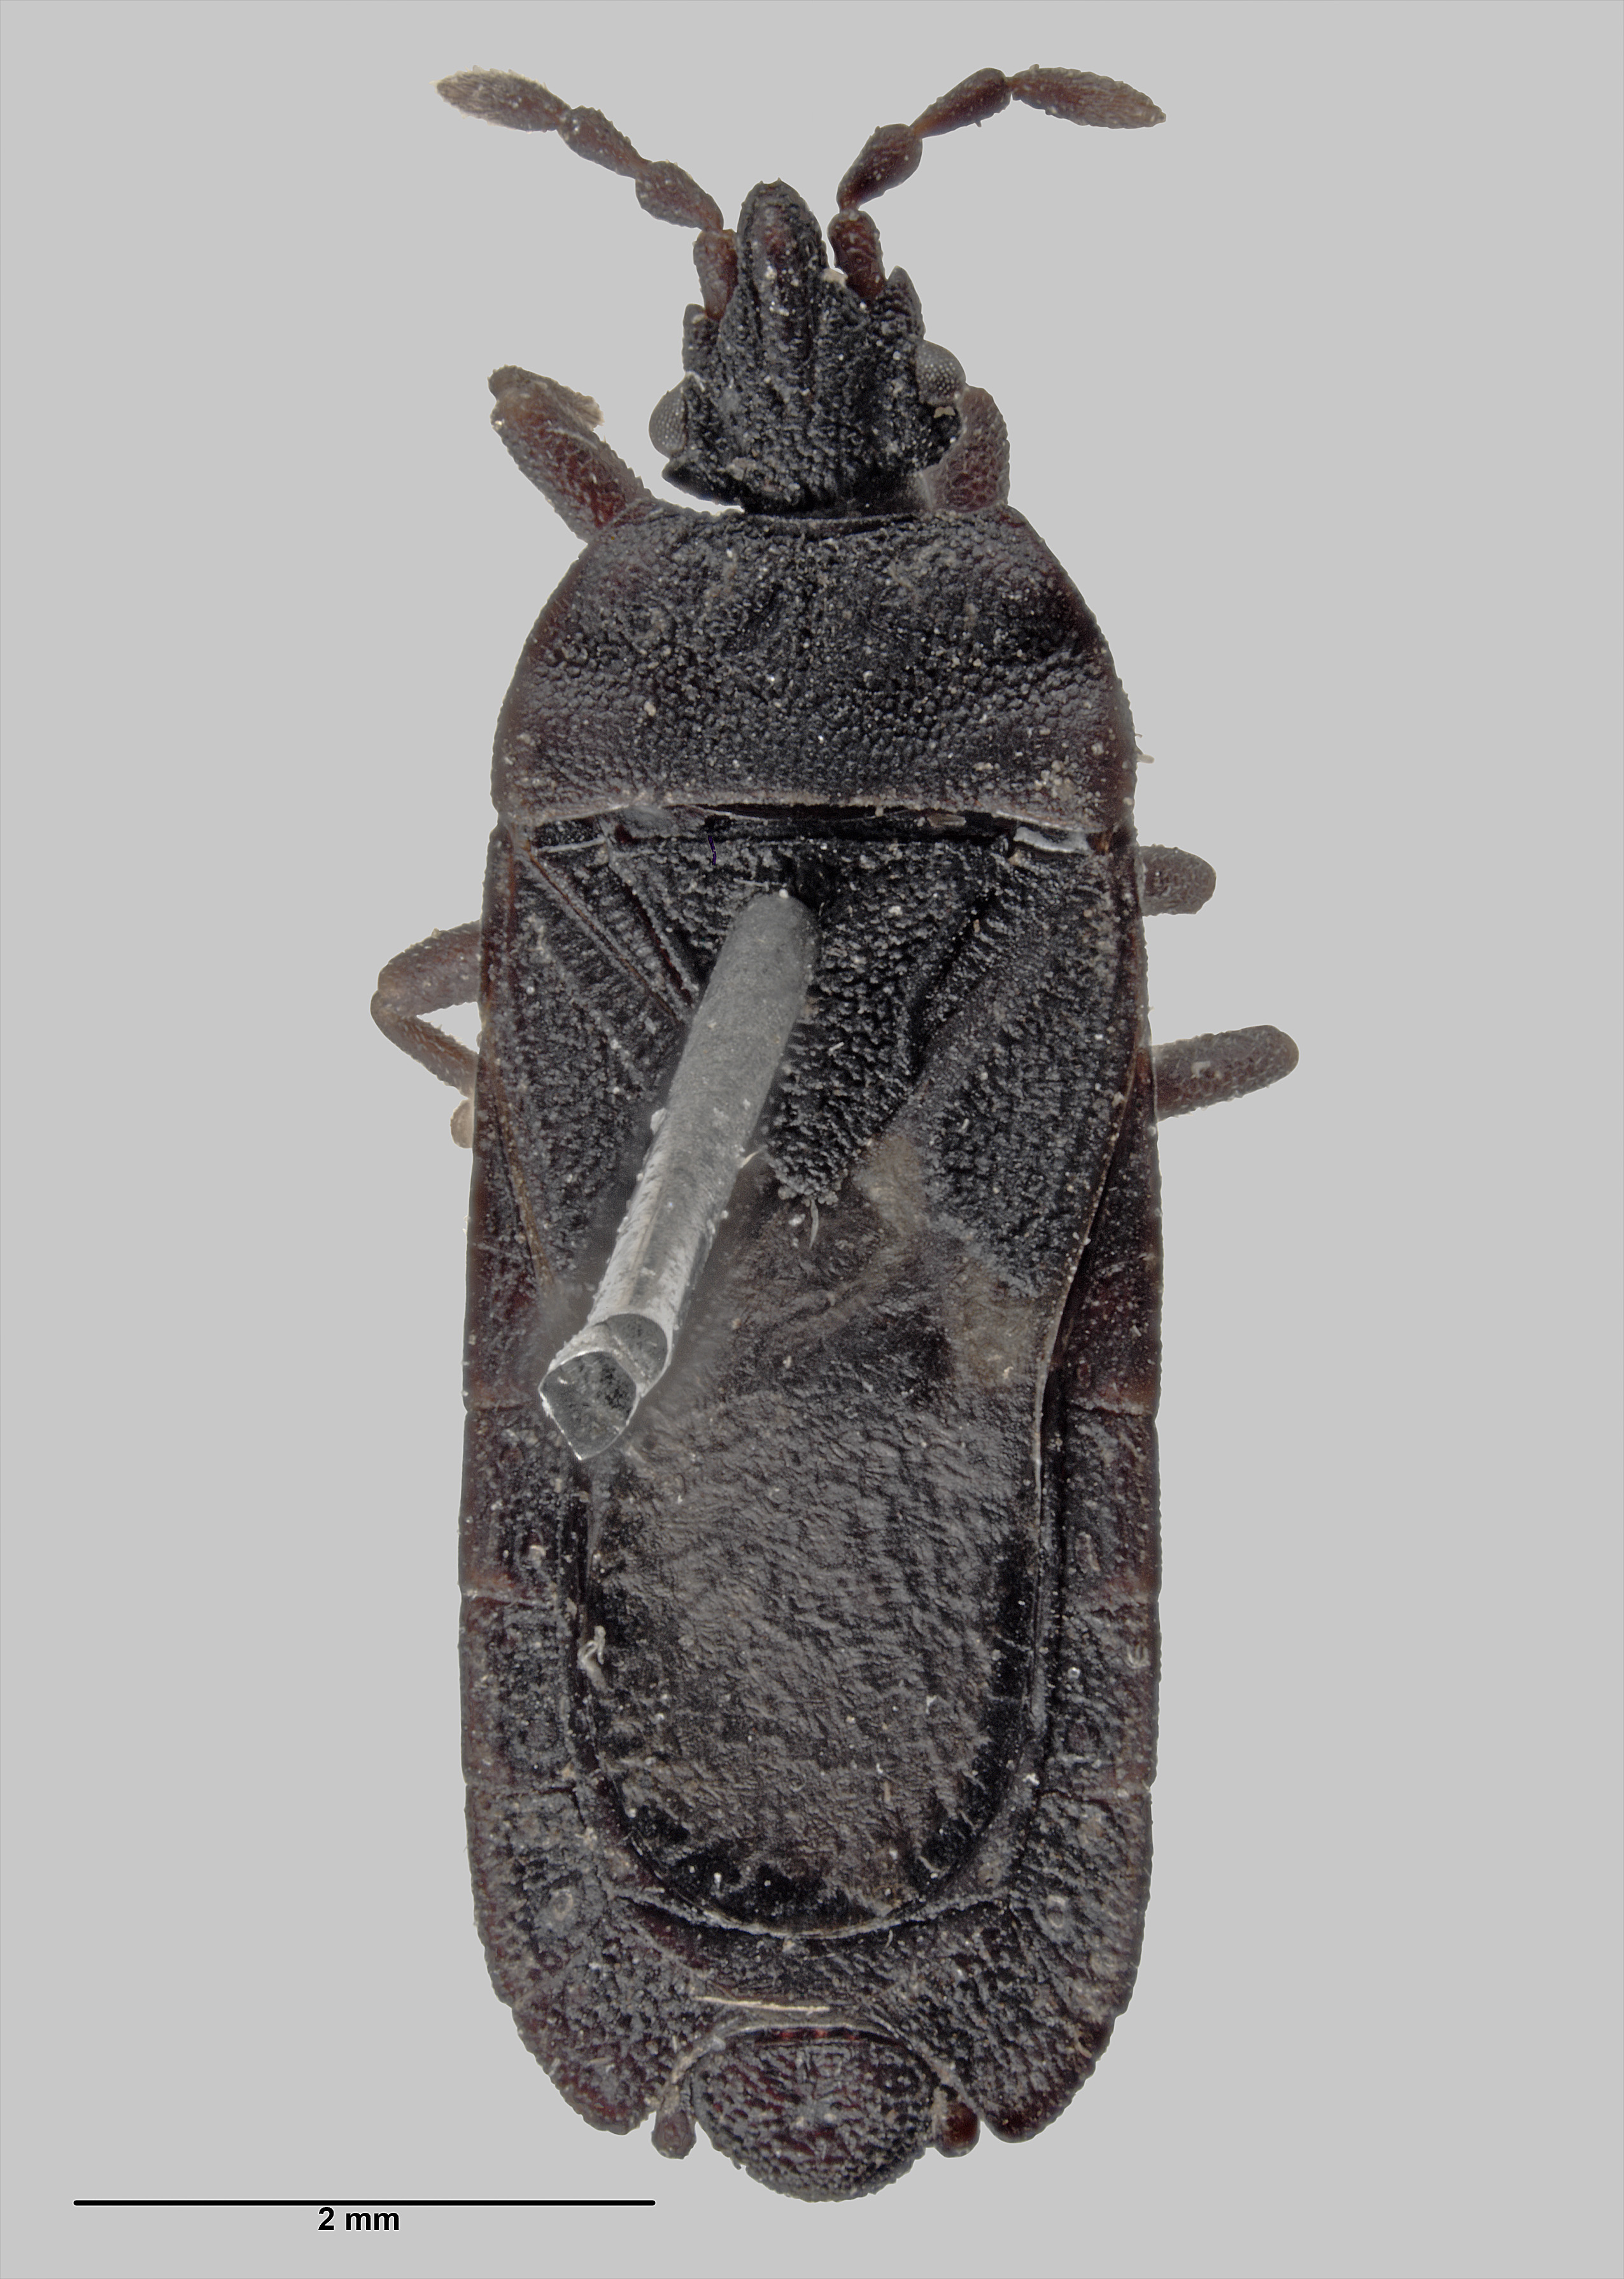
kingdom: Animalia
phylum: Arthropoda
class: Insecta
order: Hemiptera
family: Aradidae
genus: Ctenoneurus
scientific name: Ctenoneurus
